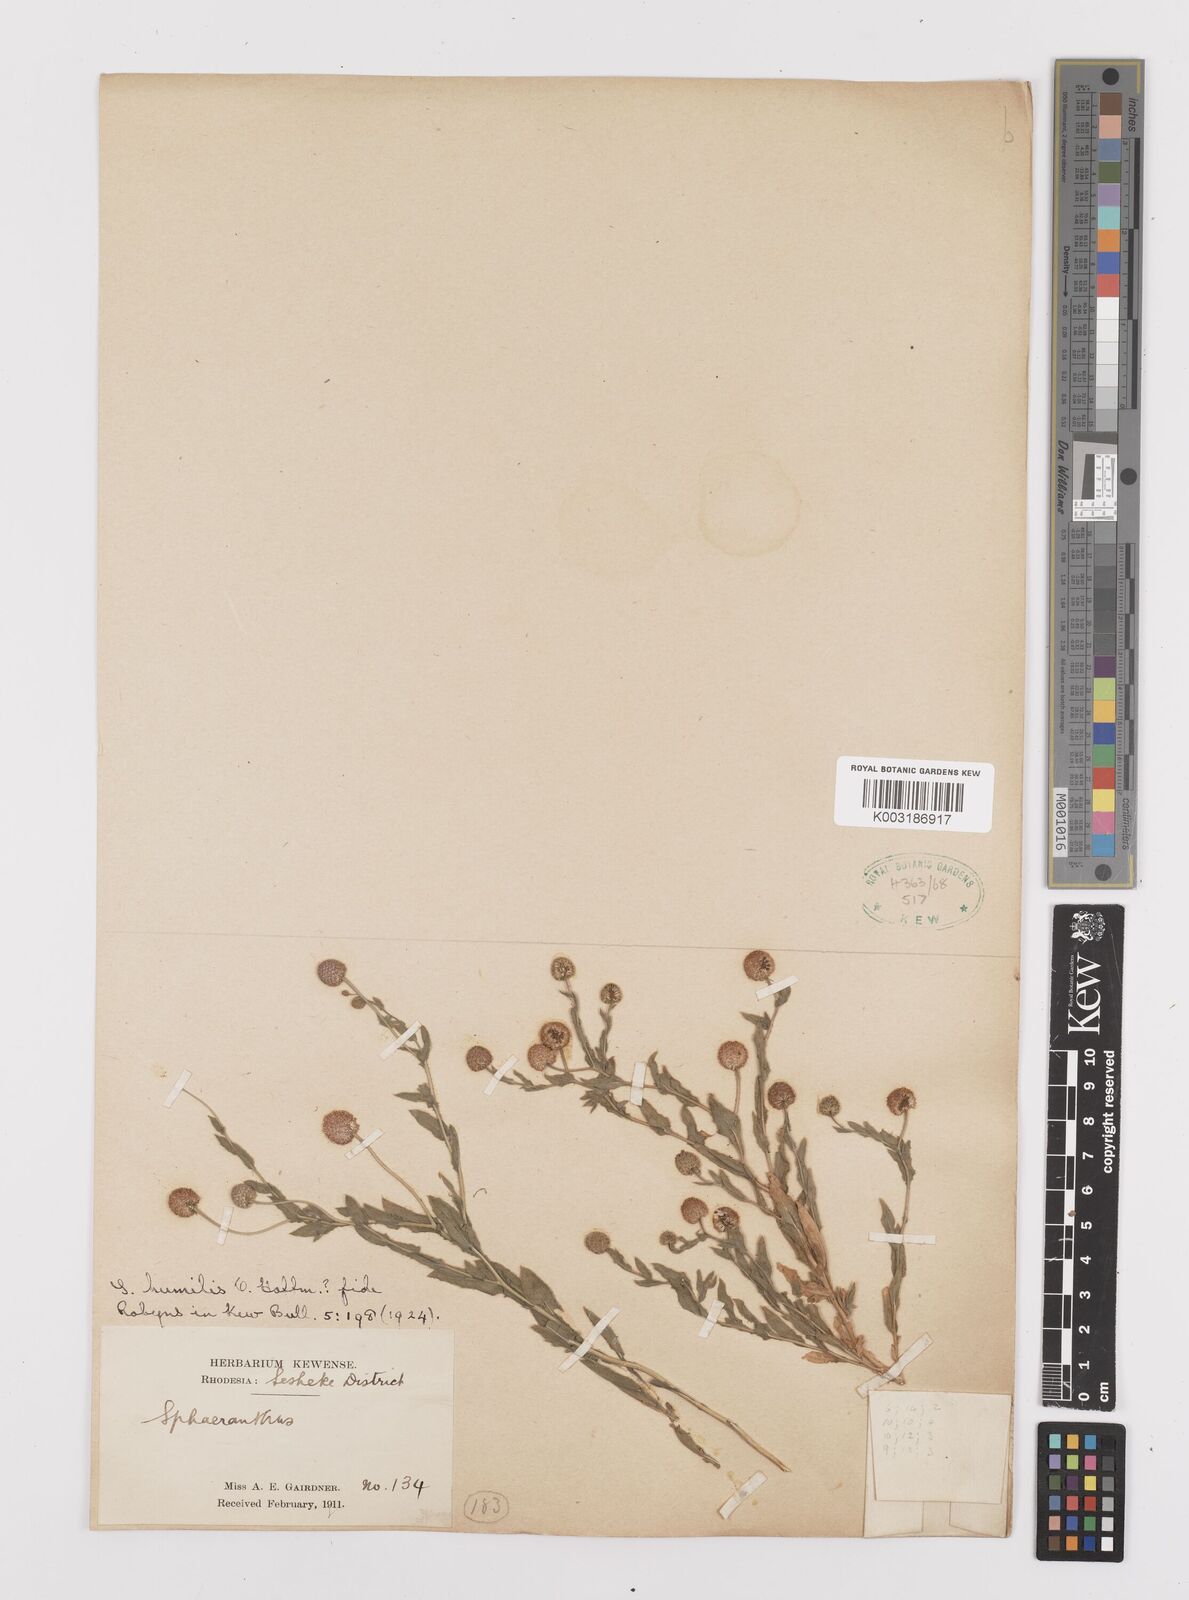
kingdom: Plantae
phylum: Tracheophyta
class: Magnoliopsida
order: Asterales
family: Asteraceae
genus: Sphaeranthus
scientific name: Sphaeranthus flexuosus
